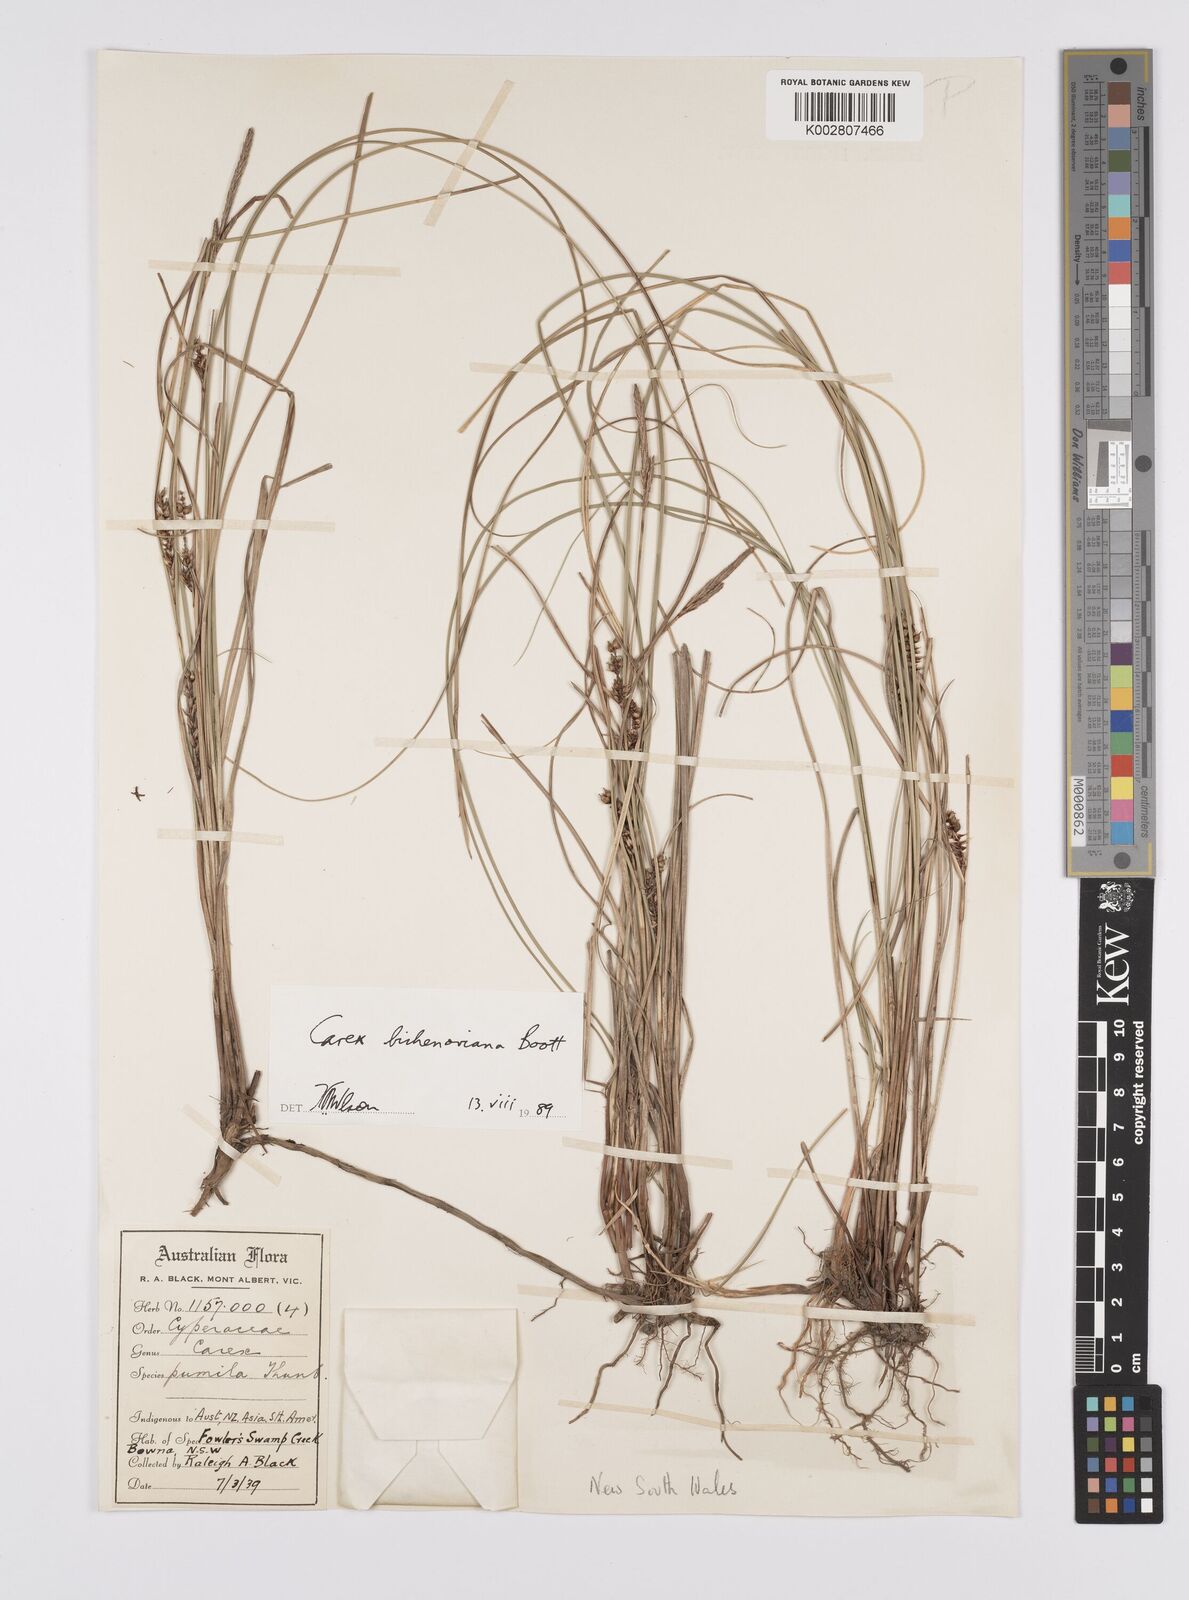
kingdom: Plantae
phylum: Tracheophyta
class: Liliopsida
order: Poales
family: Cyperaceae
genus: Carex
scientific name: Carex bichenoviana
